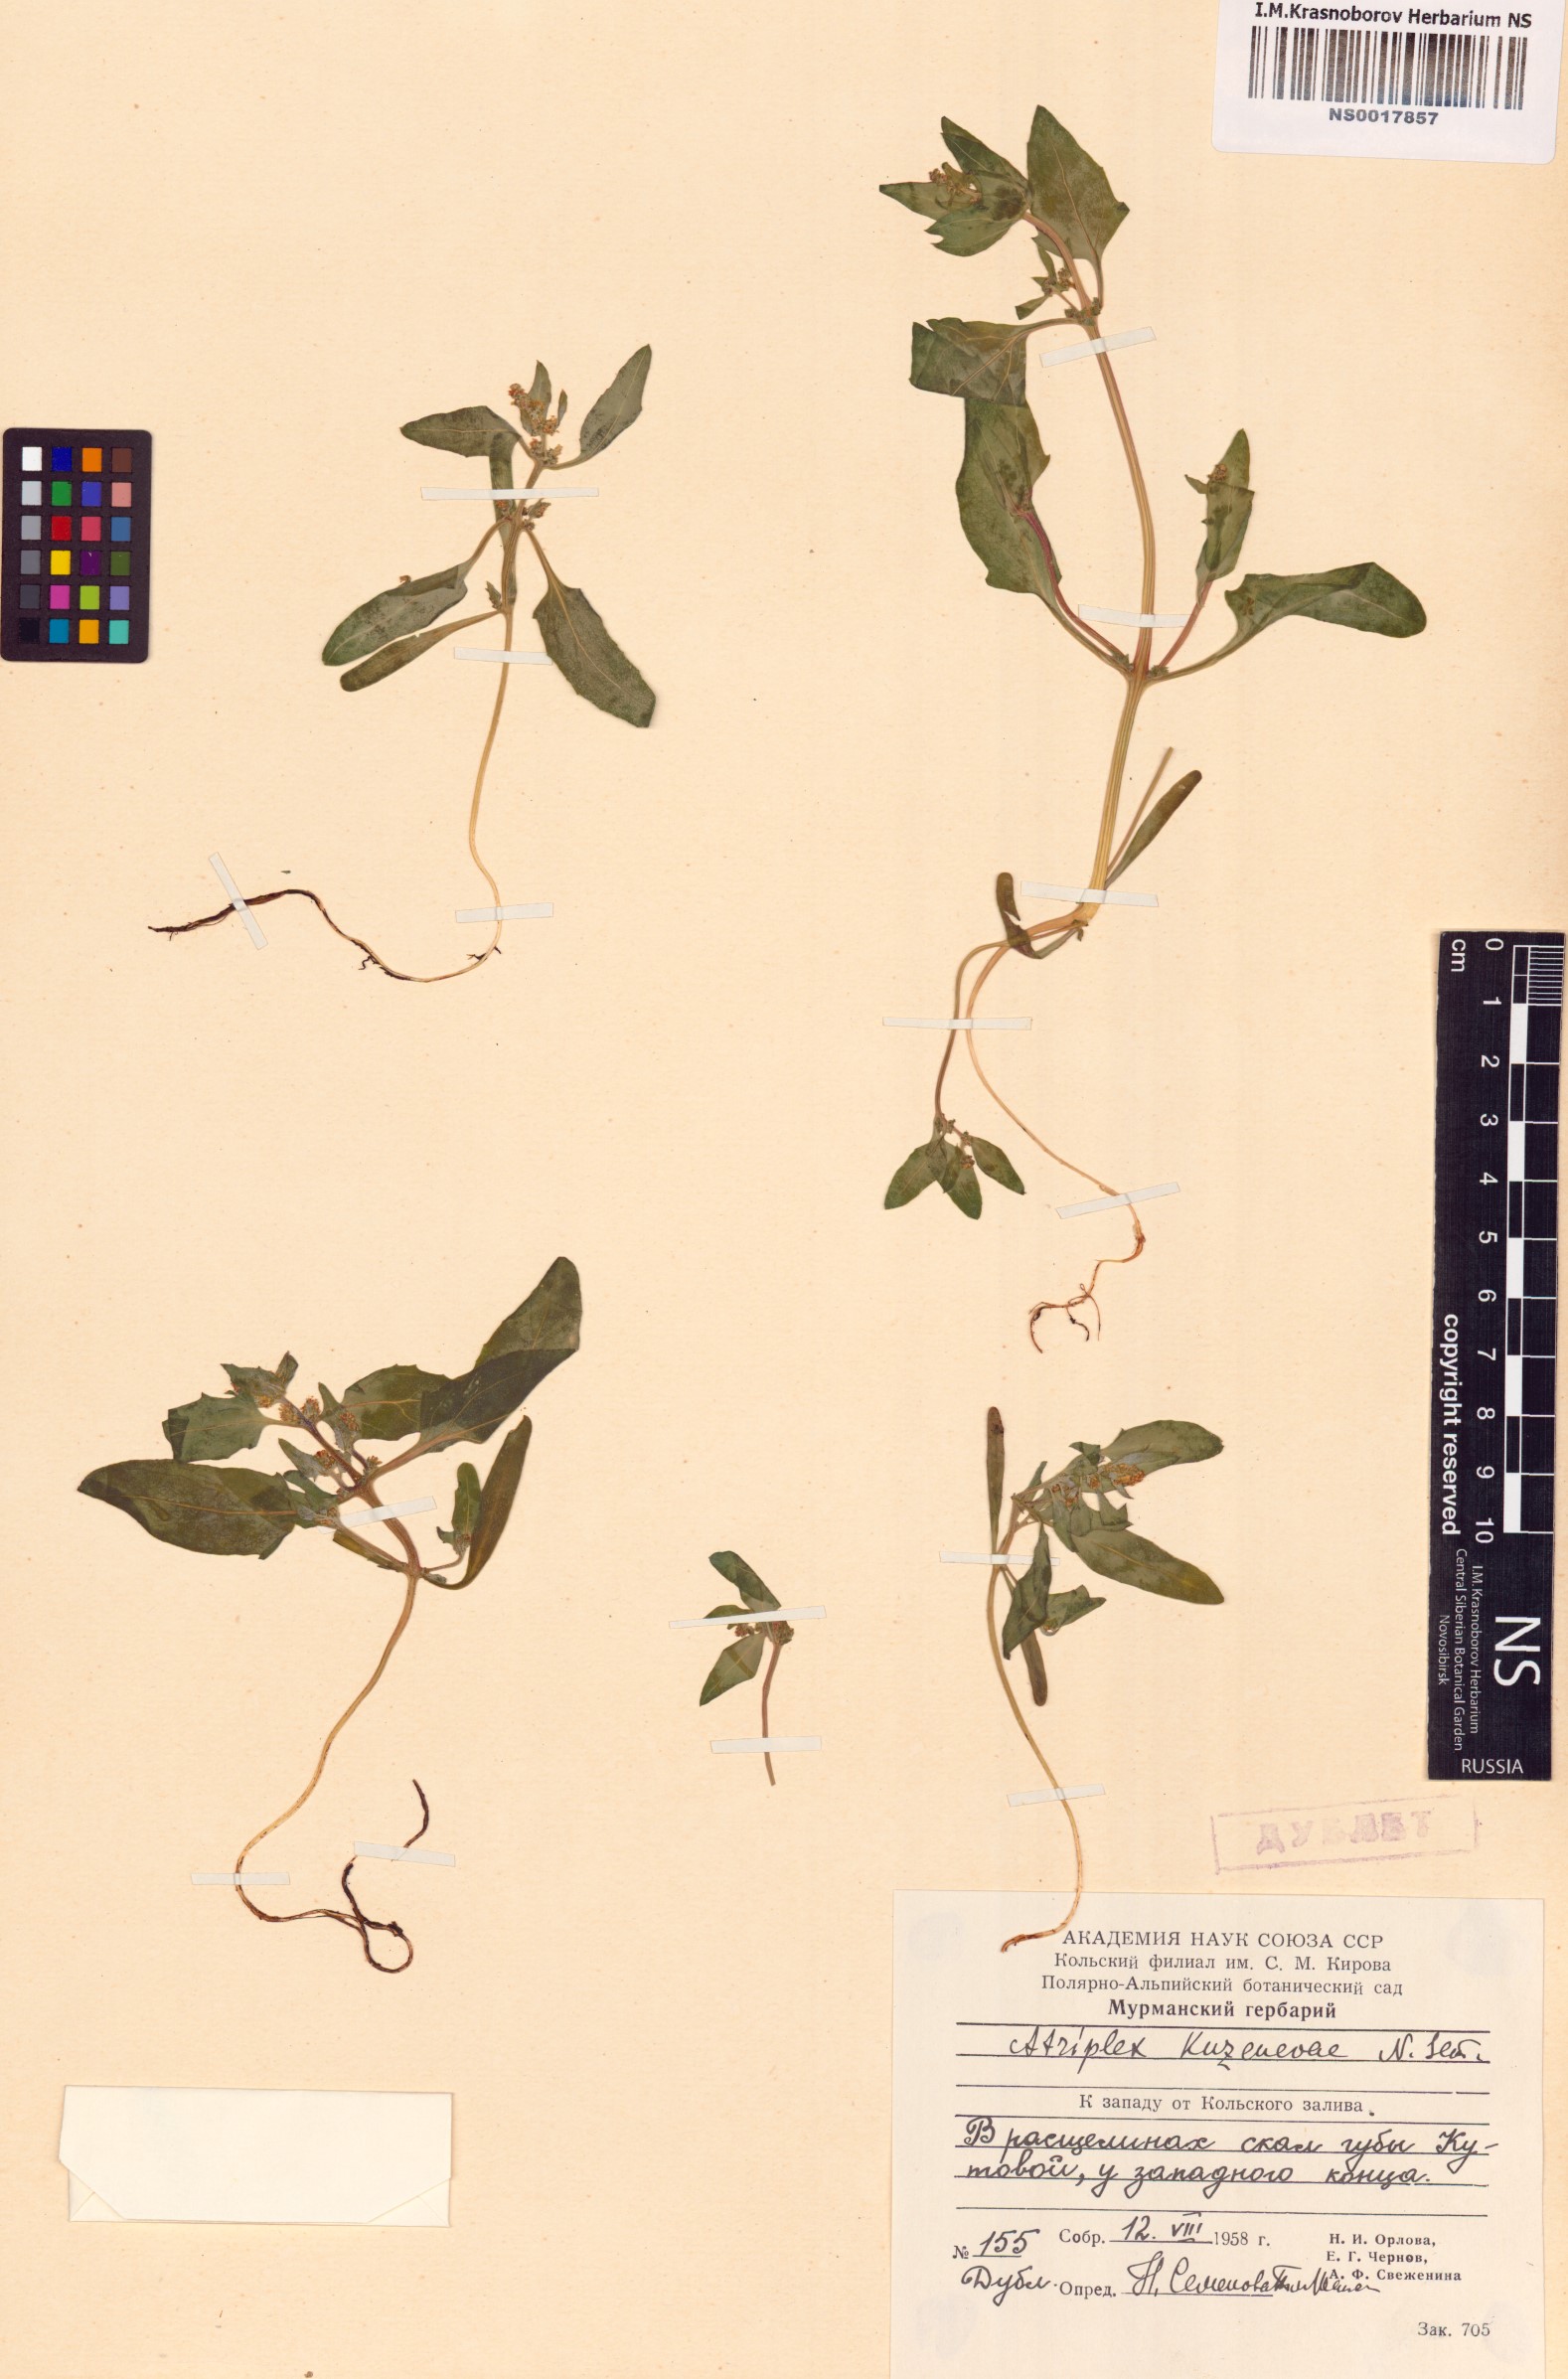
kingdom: Plantae
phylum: Tracheophyta
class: Magnoliopsida
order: Caryophyllales
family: Amaranthaceae
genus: Atriplex
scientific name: Atriplex nudicaulis
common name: Baltic orache
